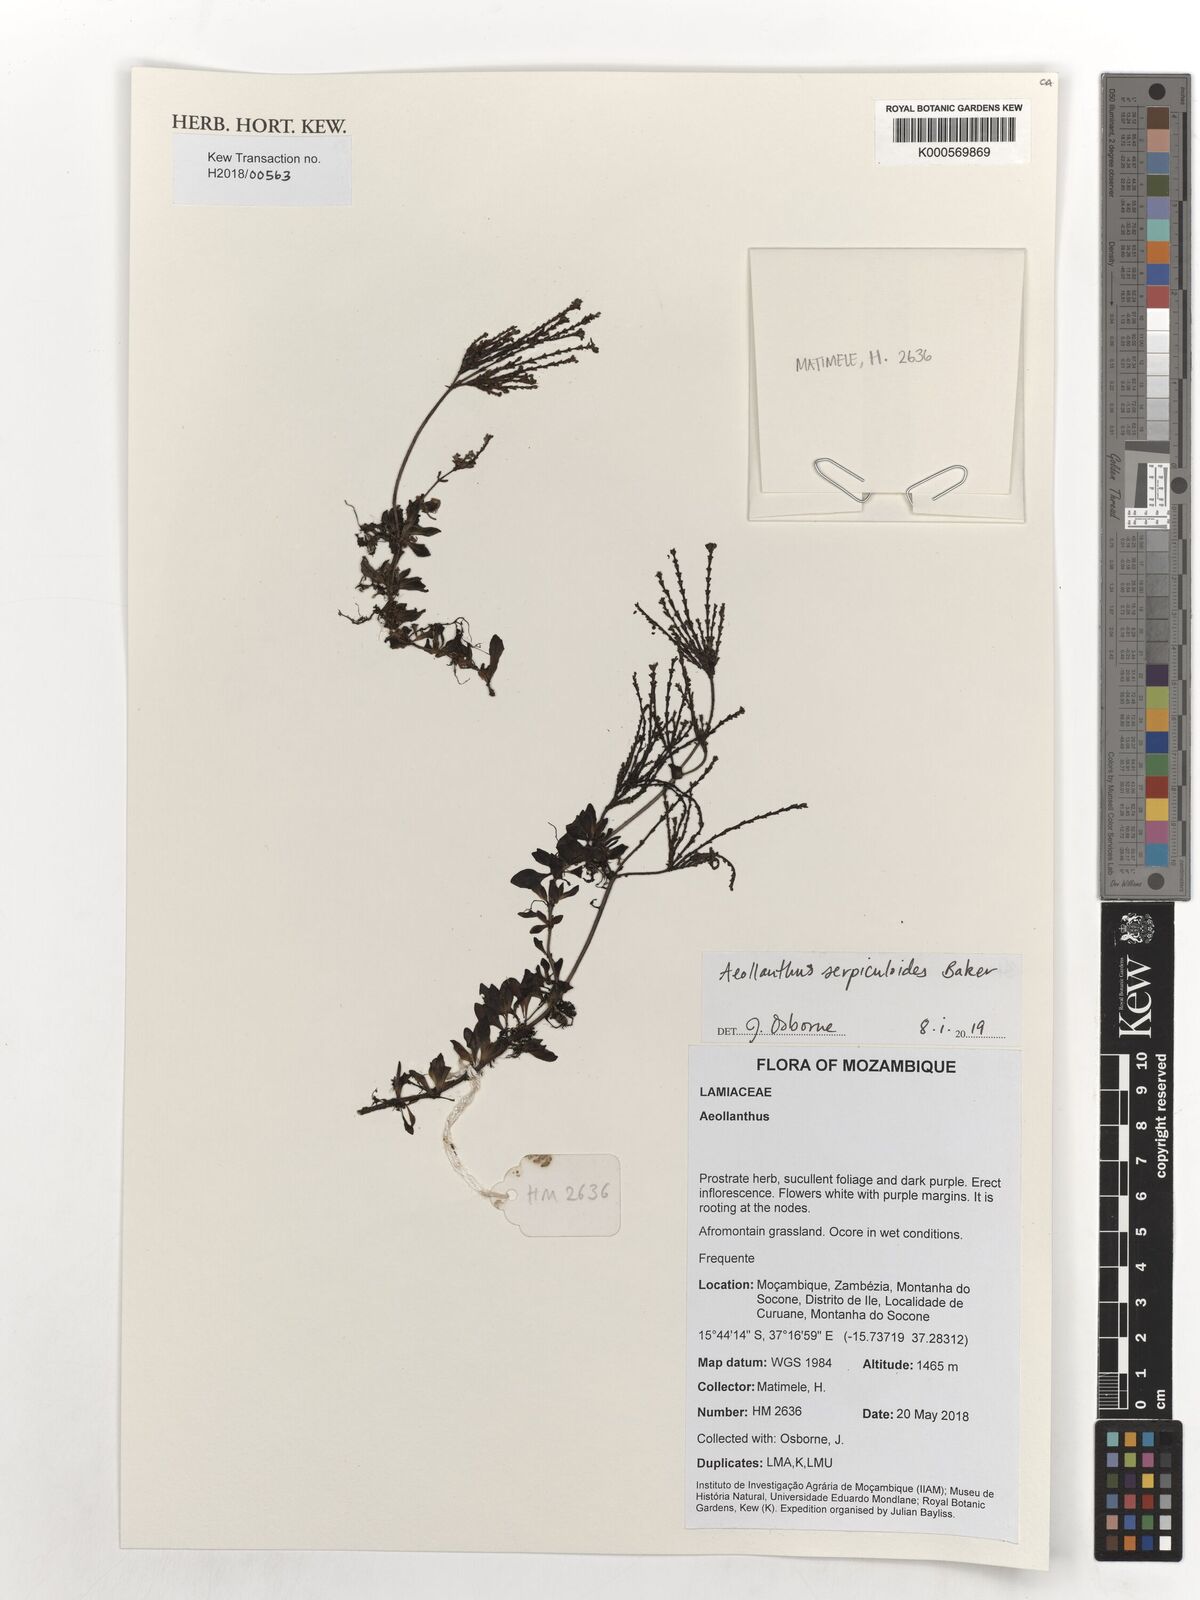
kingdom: Plantae
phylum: Tracheophyta
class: Magnoliopsida
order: Lamiales
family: Lamiaceae
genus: Aeollanthus
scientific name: Aeollanthus serpiculoides
